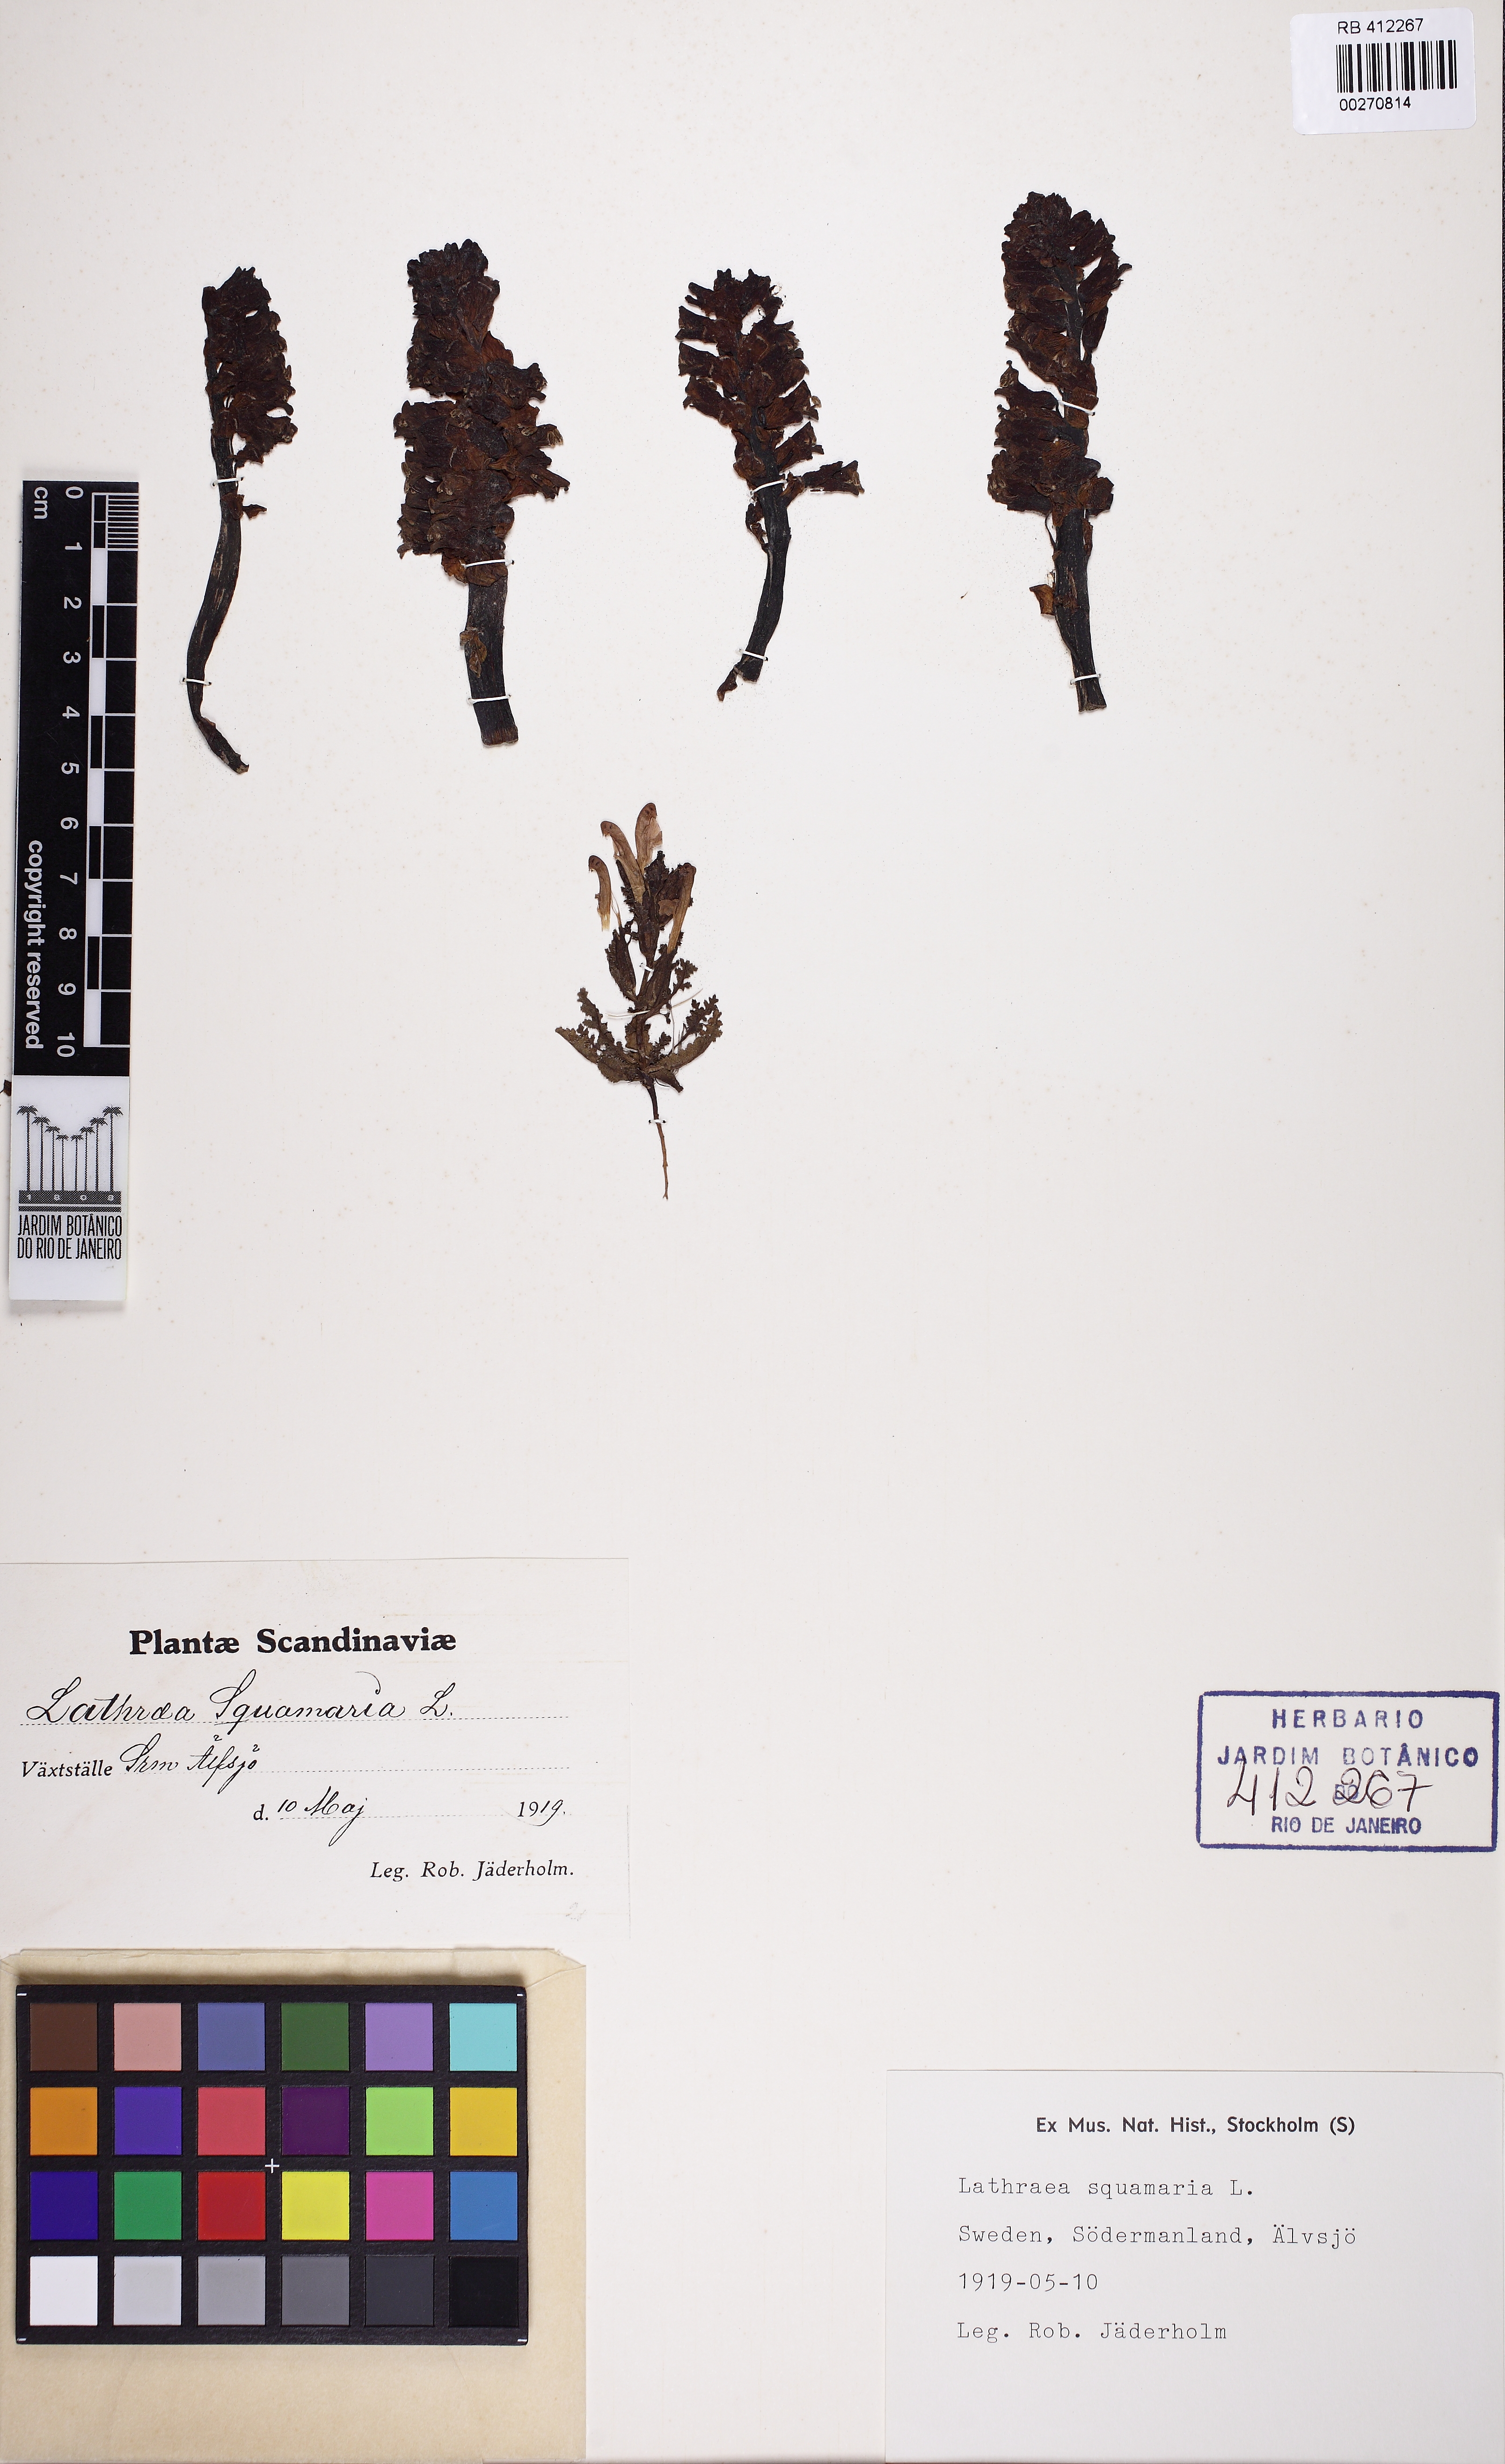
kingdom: Plantae
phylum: Tracheophyta
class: Magnoliopsida
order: Lamiales
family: Orobanchaceae
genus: Lathraea
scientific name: Lathraea squamaria
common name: Toothwort
